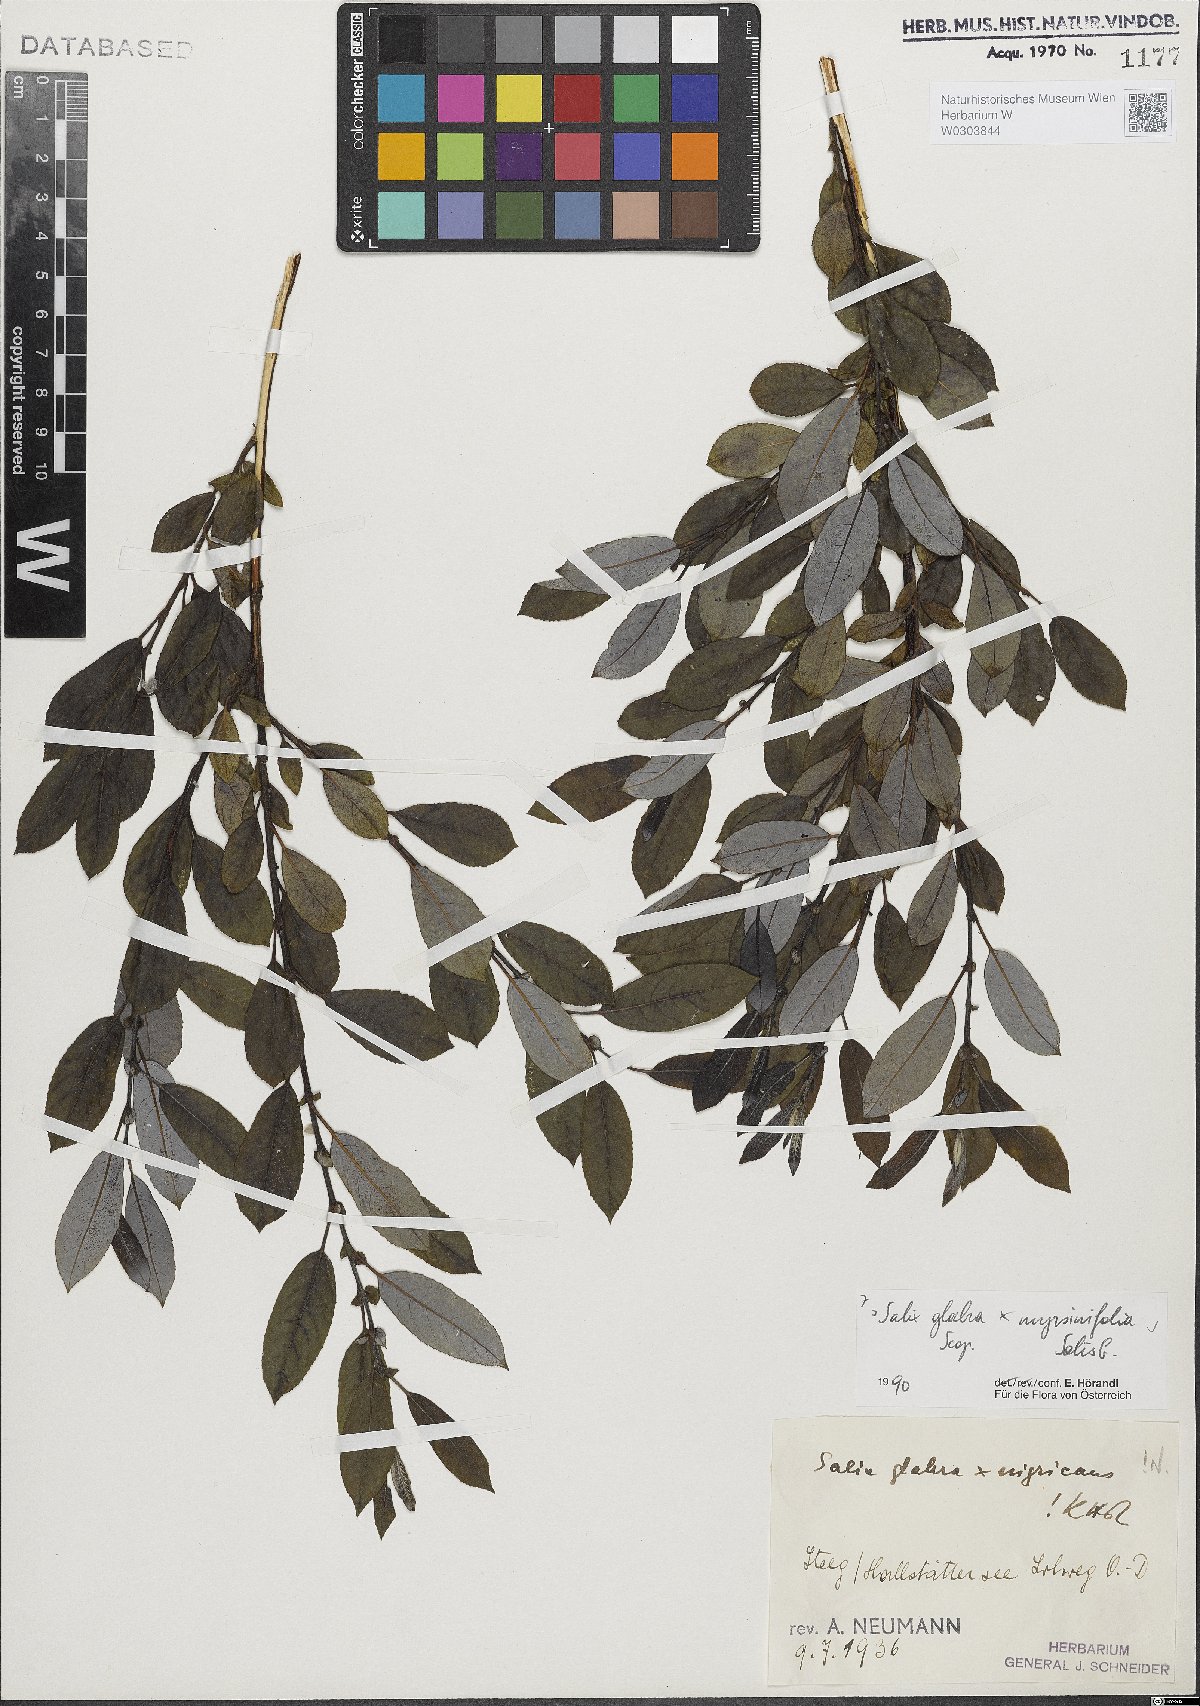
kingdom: Plantae
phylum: Tracheophyta
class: Magnoliopsida
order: Malpighiales
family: Salicaceae
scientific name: Salicaceae
